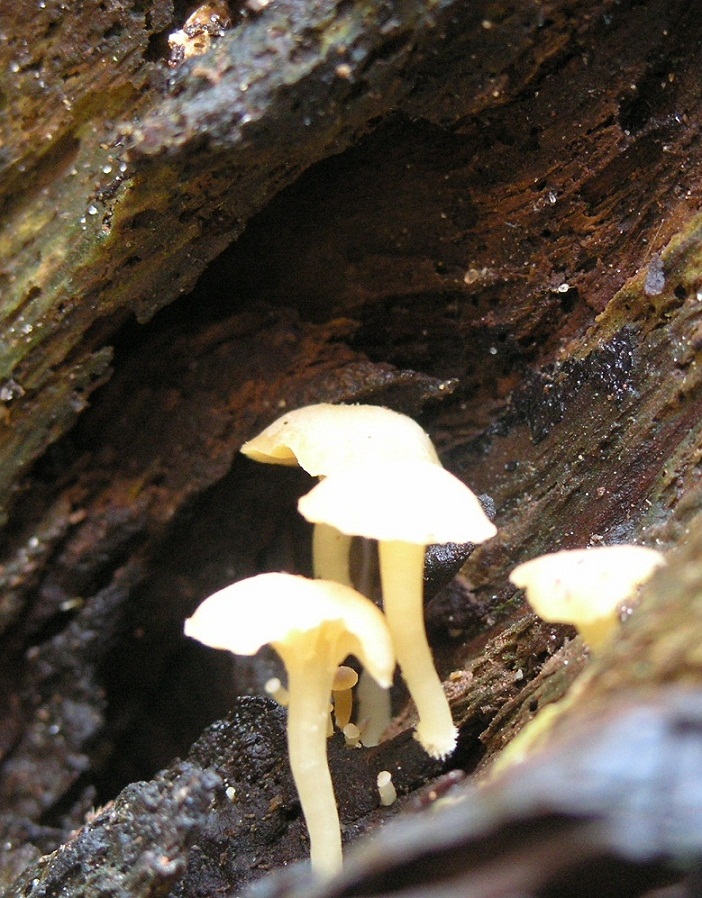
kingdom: Fungi
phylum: Basidiomycota
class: Agaricomycetes
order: Agaricales
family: Hygrophoraceae
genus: Chrysomphalina
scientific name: Chrysomphalina grossula
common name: stød-gyldenblad
